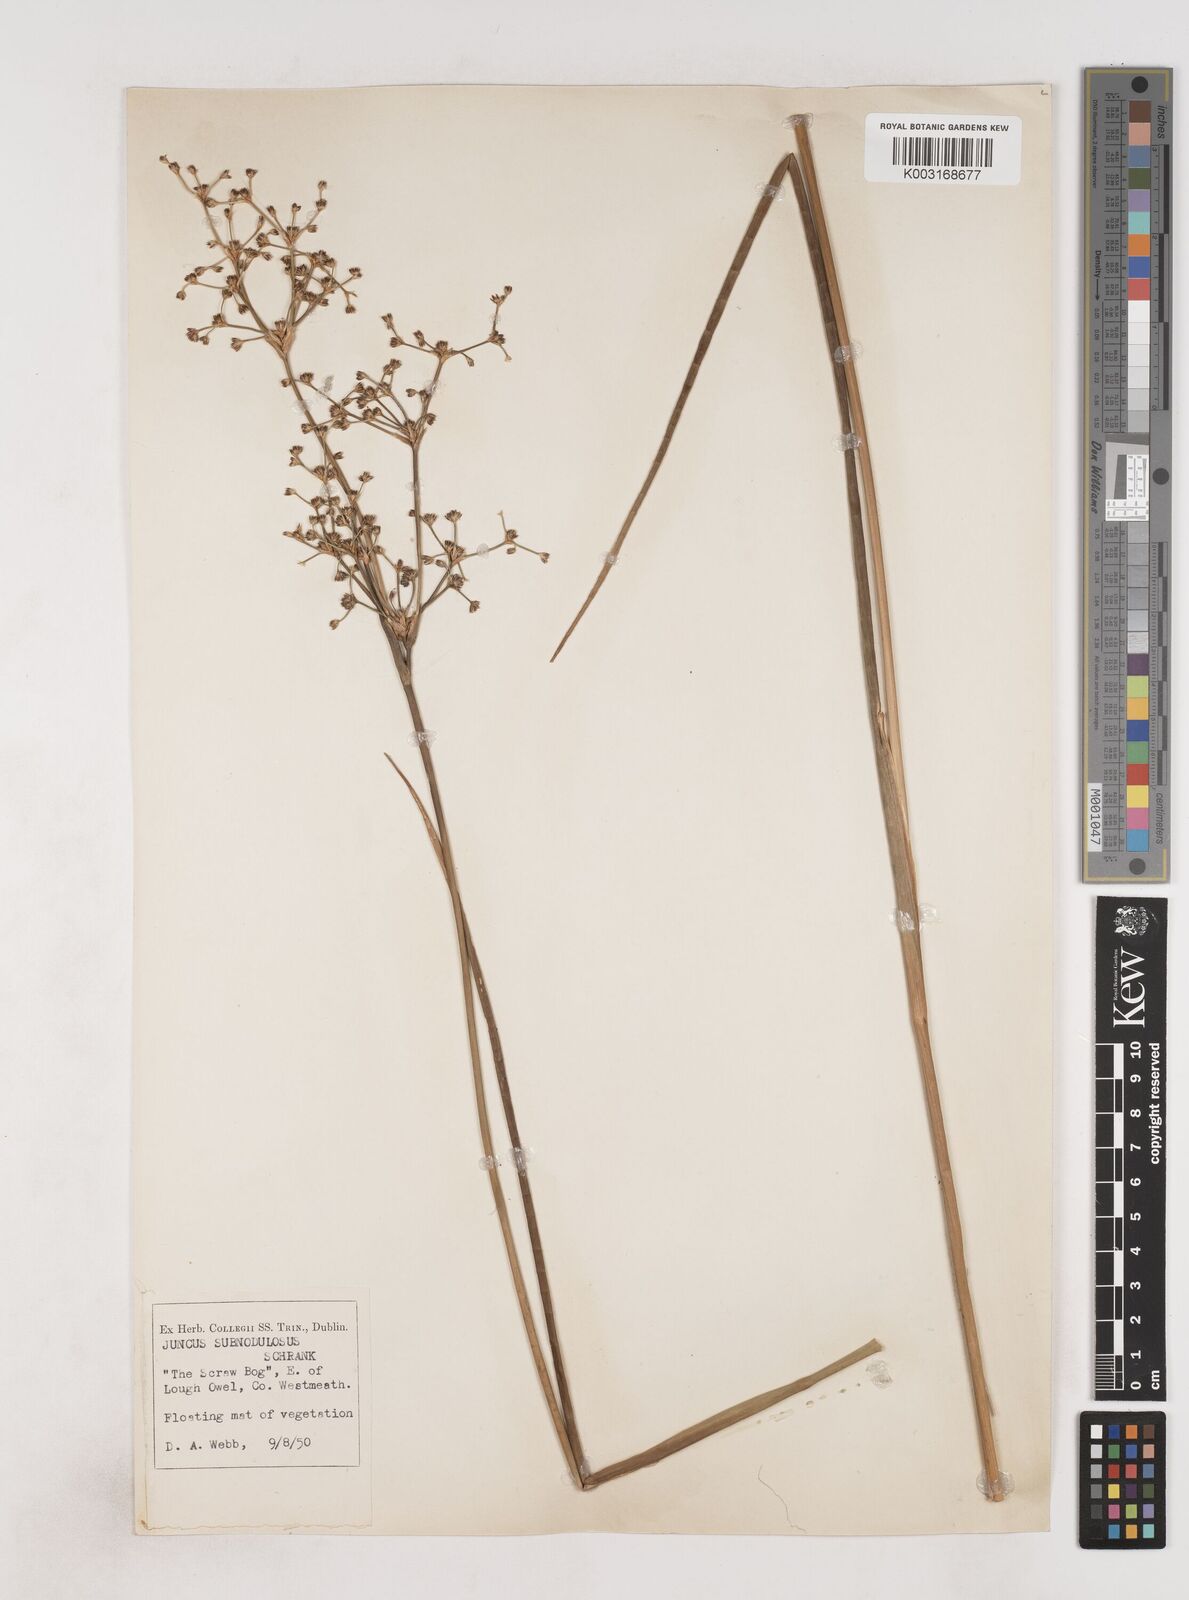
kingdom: Plantae
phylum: Tracheophyta
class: Liliopsida
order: Poales
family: Juncaceae
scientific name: Juncaceae
